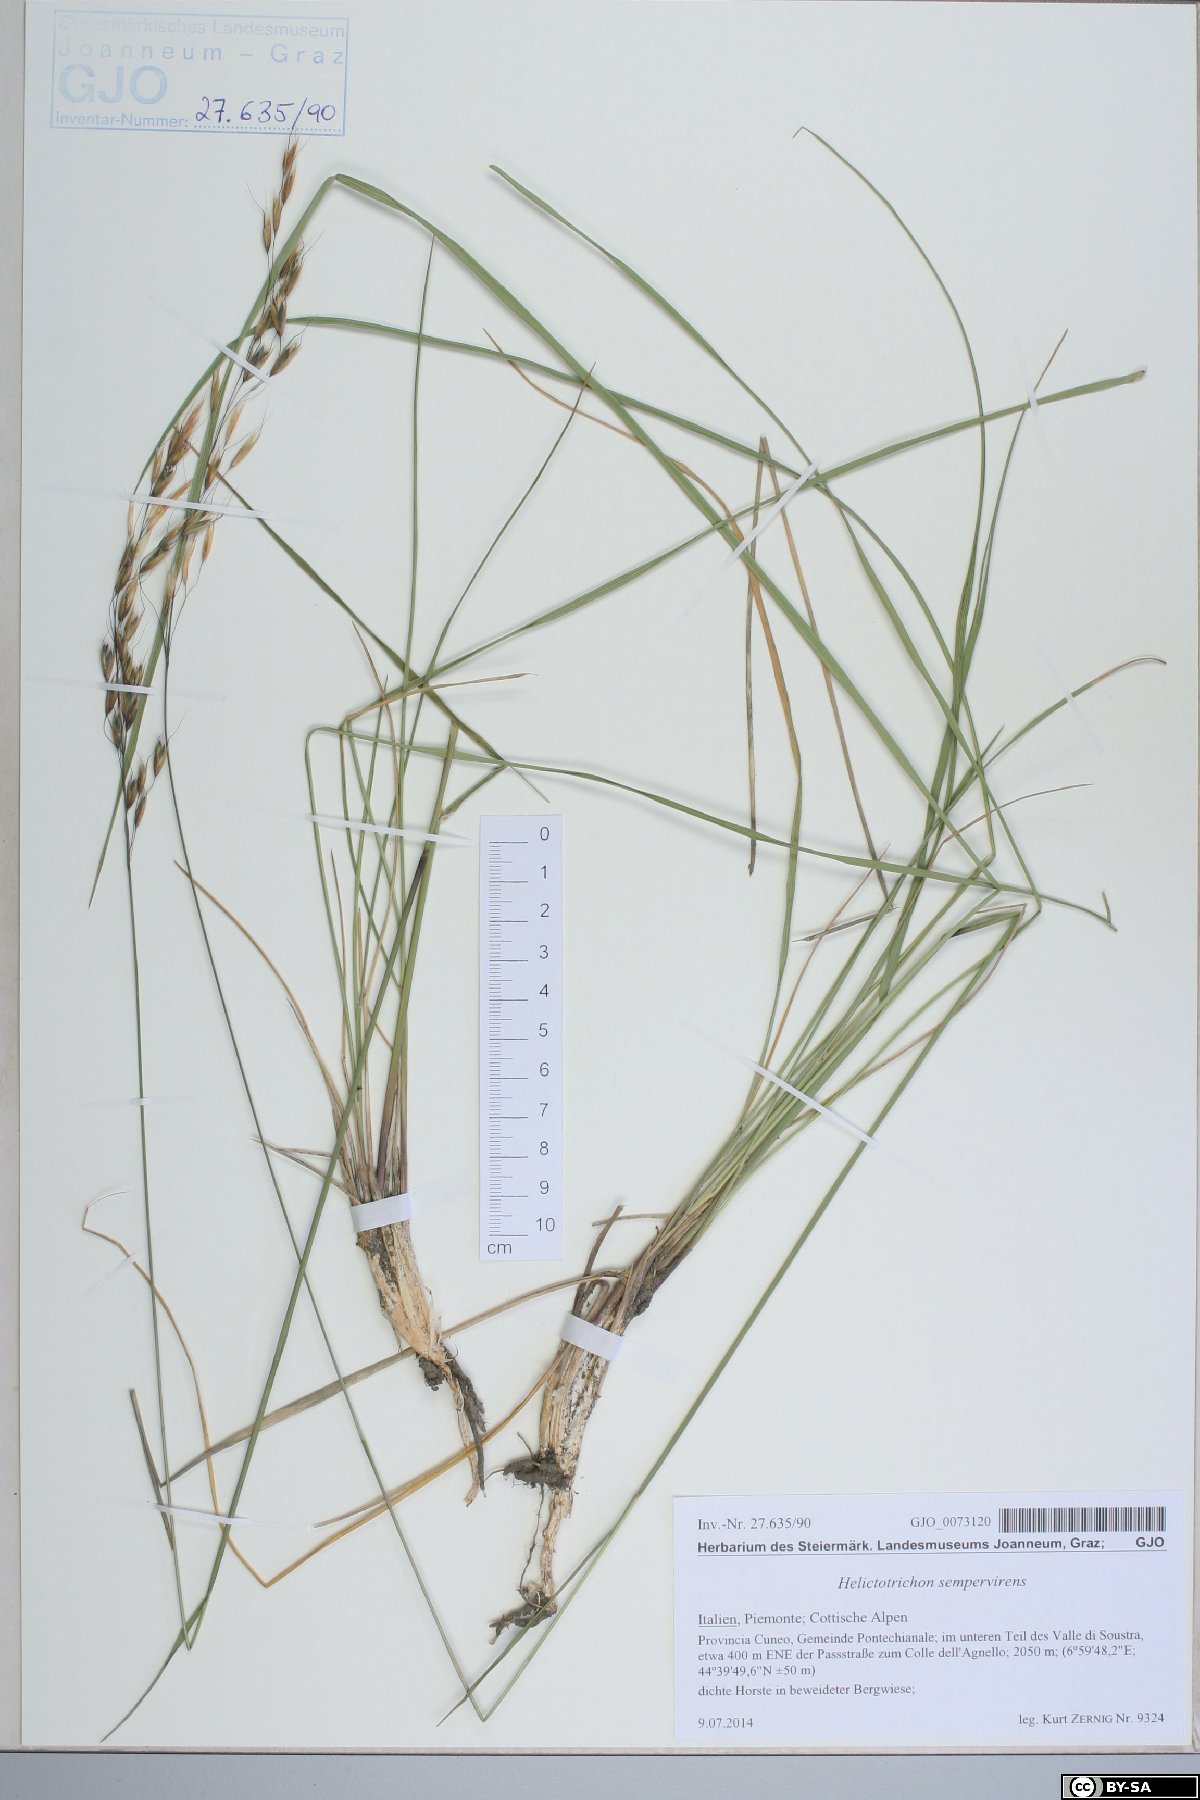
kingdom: Plantae
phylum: Tracheophyta
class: Liliopsida
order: Poales
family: Poaceae
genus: Helictotrichon
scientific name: Helictotrichon sempervirens
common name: Blue oat-grass
